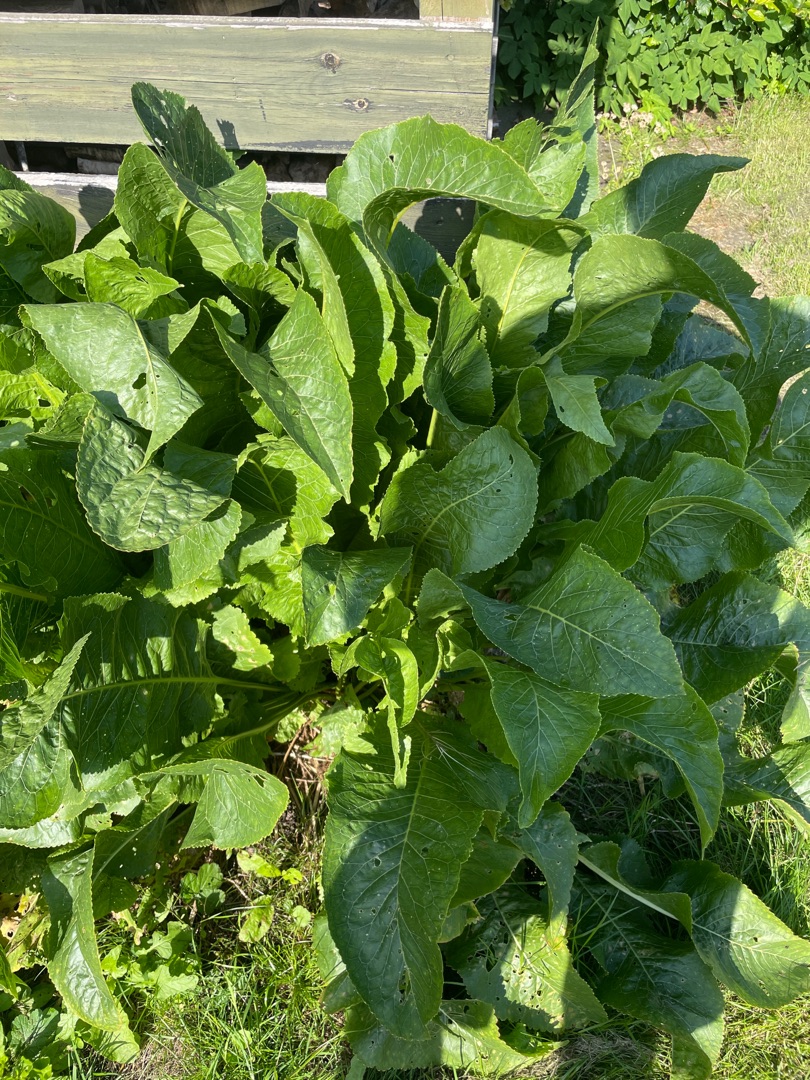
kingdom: Plantae
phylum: Tracheophyta
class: Magnoliopsida
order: Brassicales
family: Brassicaceae
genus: Armoracia
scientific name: Armoracia rusticana
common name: Peberrod
